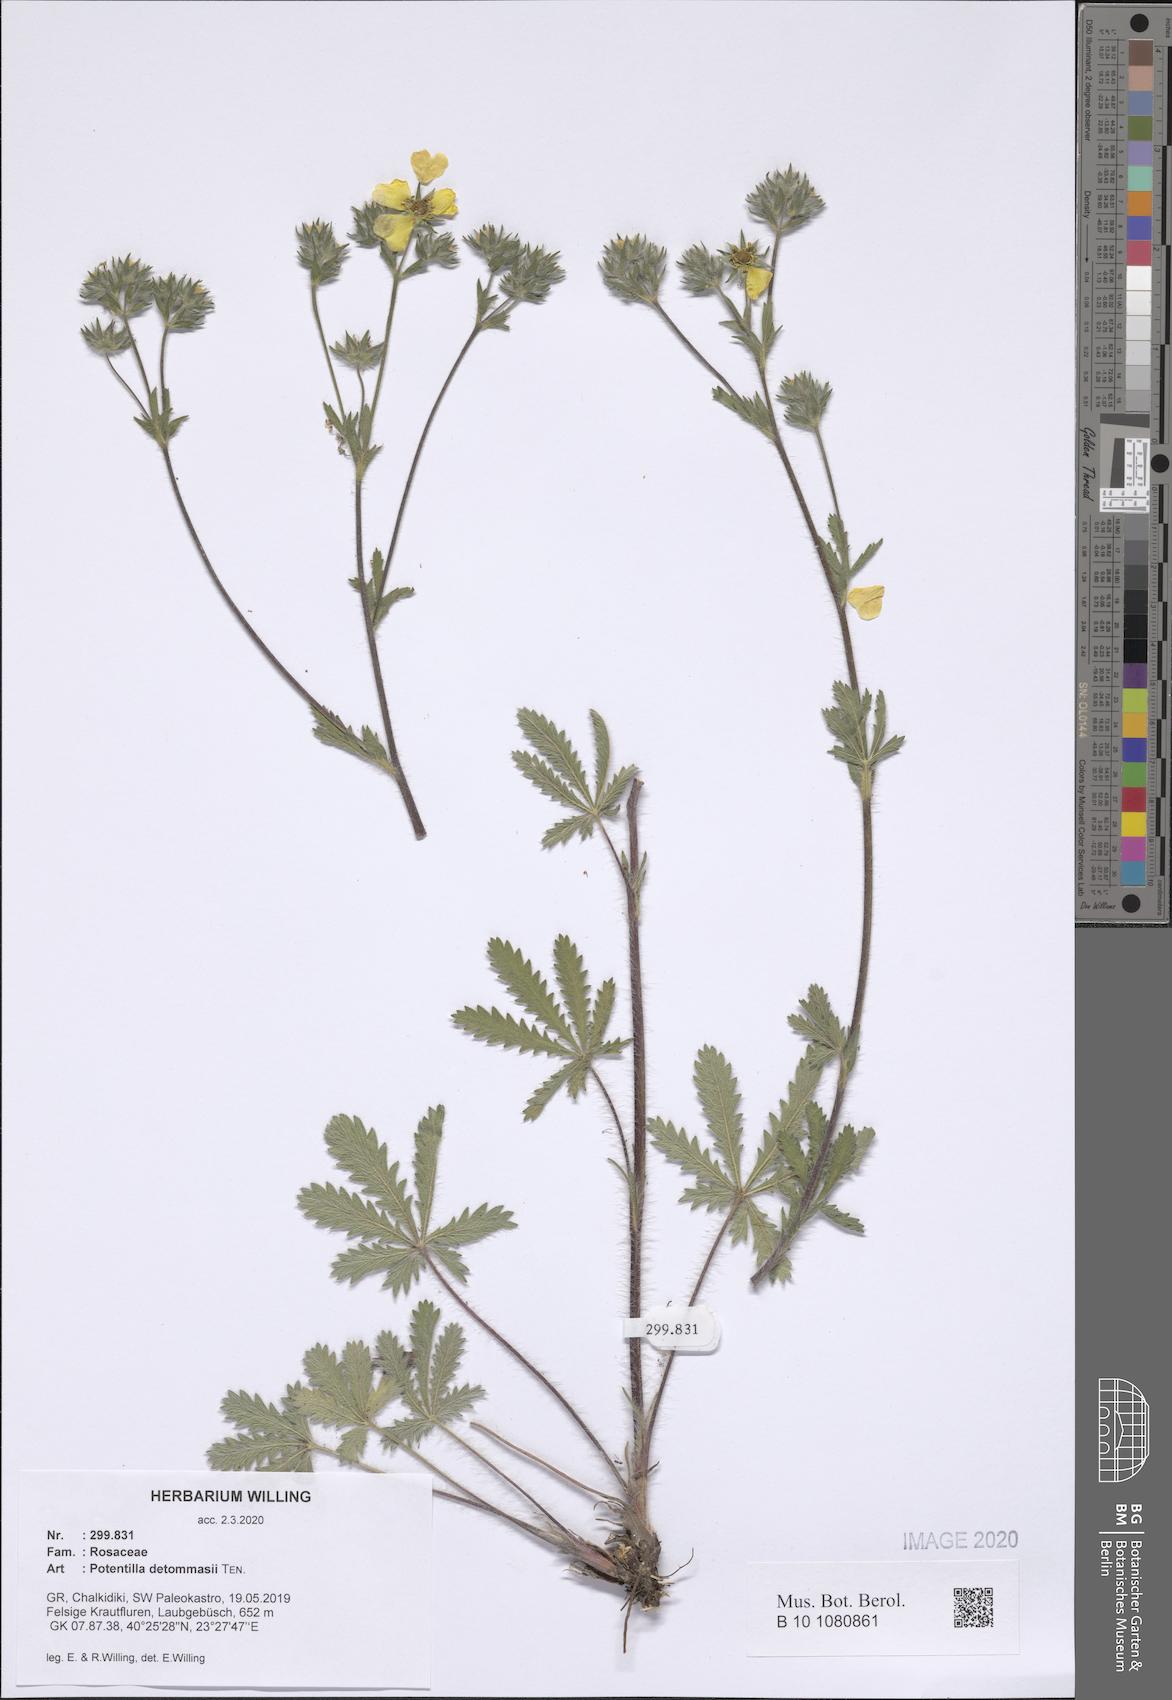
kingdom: Plantae
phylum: Tracheophyta
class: Magnoliopsida
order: Rosales
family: Rosaceae
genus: Potentilla
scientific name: Potentilla detommasii
